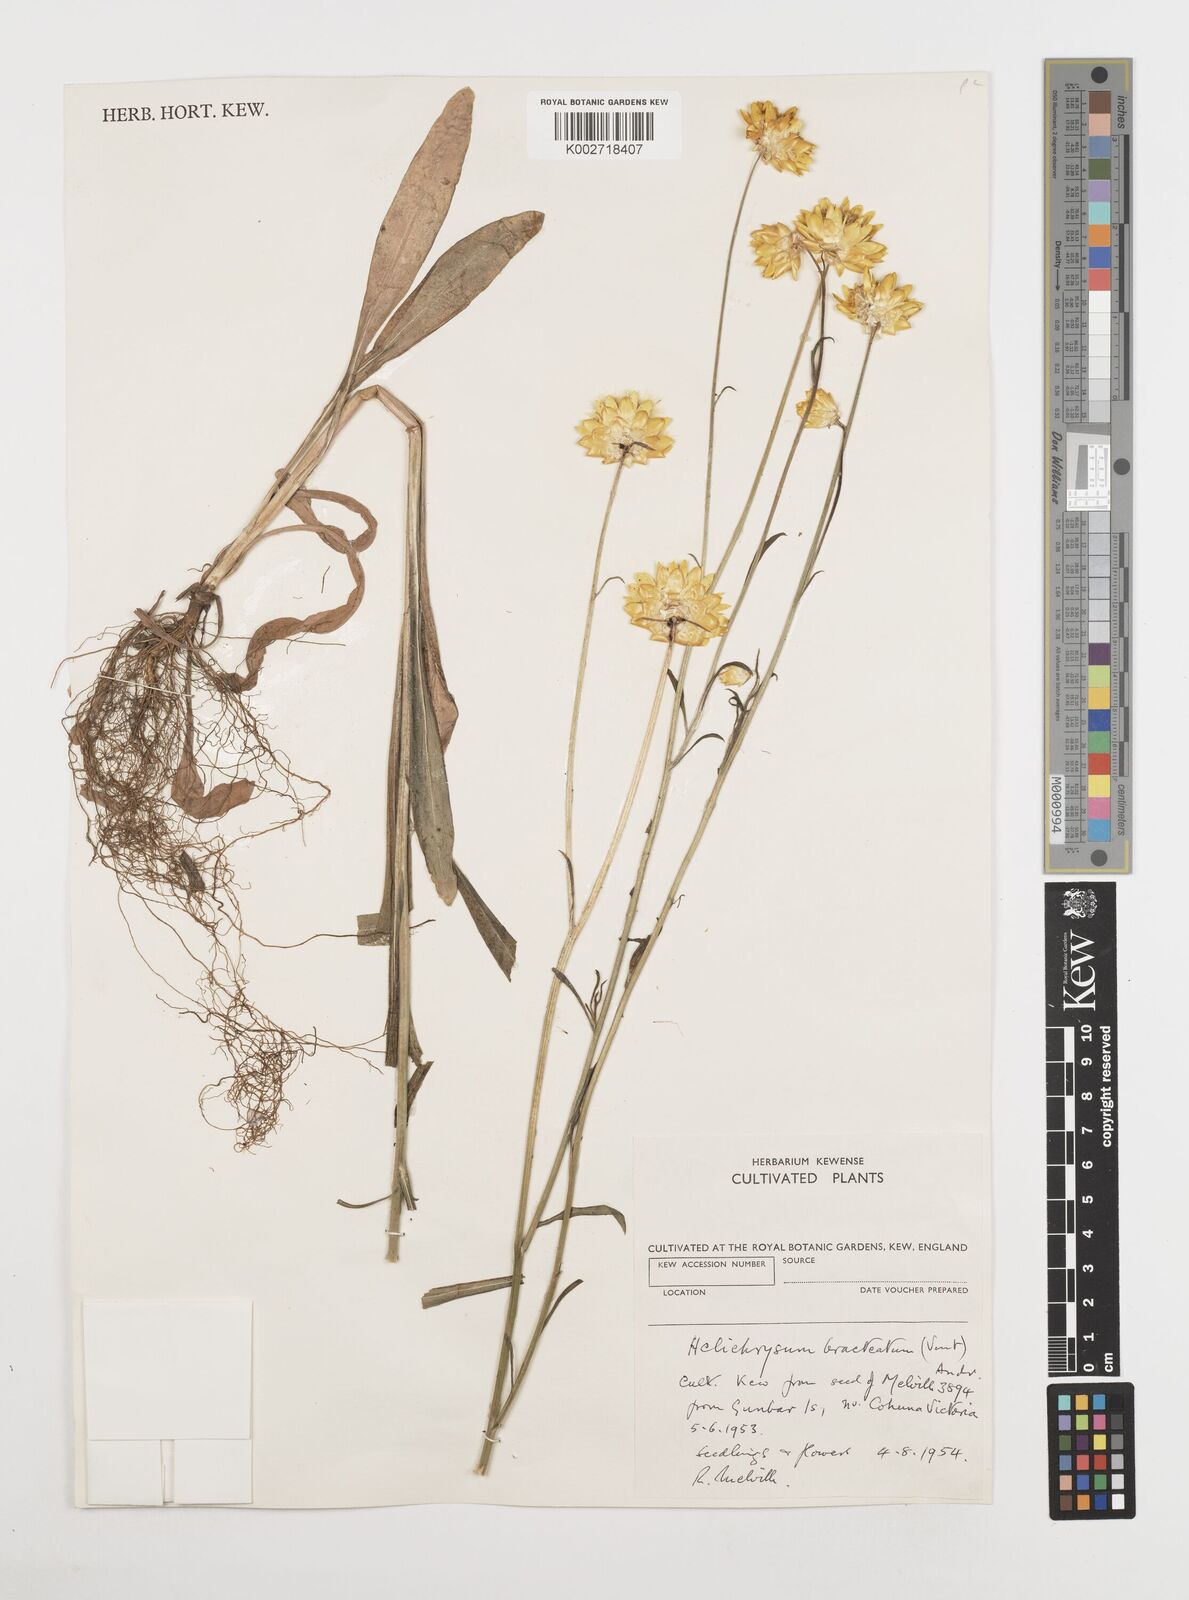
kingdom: Plantae
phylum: Tracheophyta
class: Magnoliopsida
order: Asterales
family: Asteraceae
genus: Xerochrysum
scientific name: Xerochrysum bracteatum
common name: Bracted strawflower
